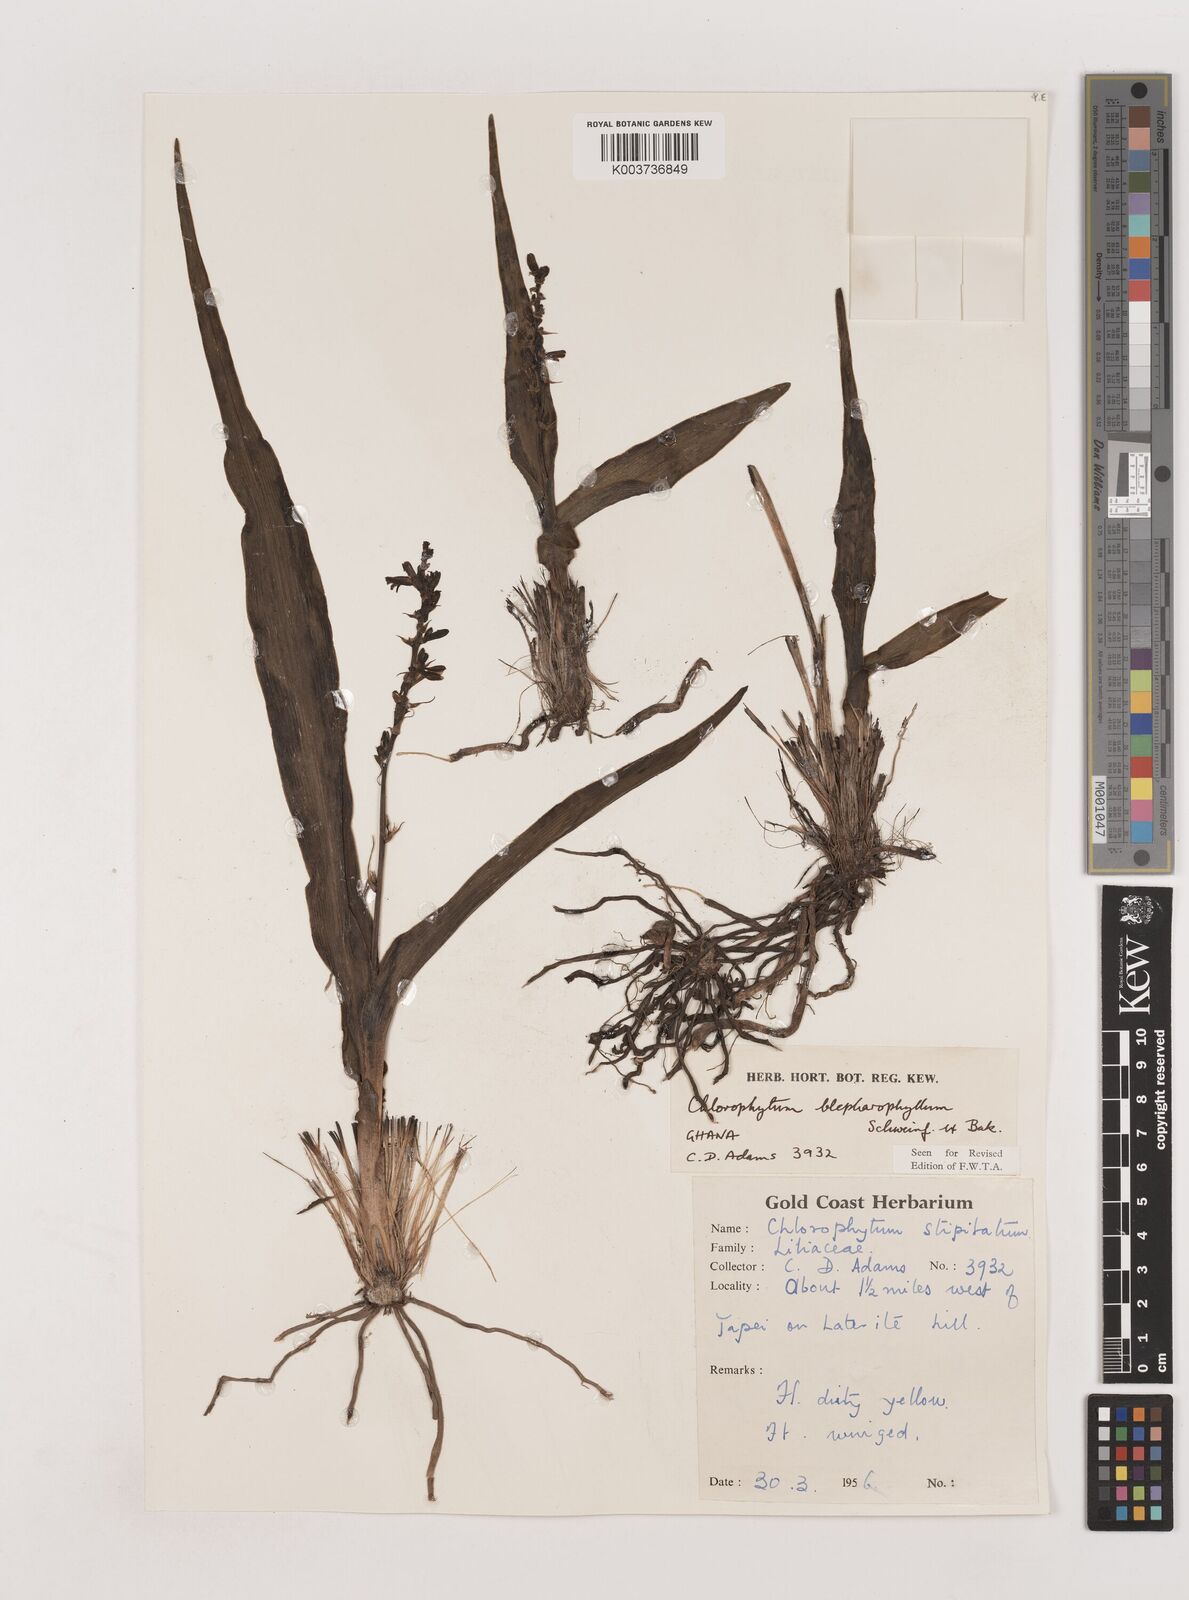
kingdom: Plantae
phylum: Tracheophyta
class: Liliopsida
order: Asparagales
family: Asparagaceae
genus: Chlorophytum
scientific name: Chlorophytum blepharophyllum
